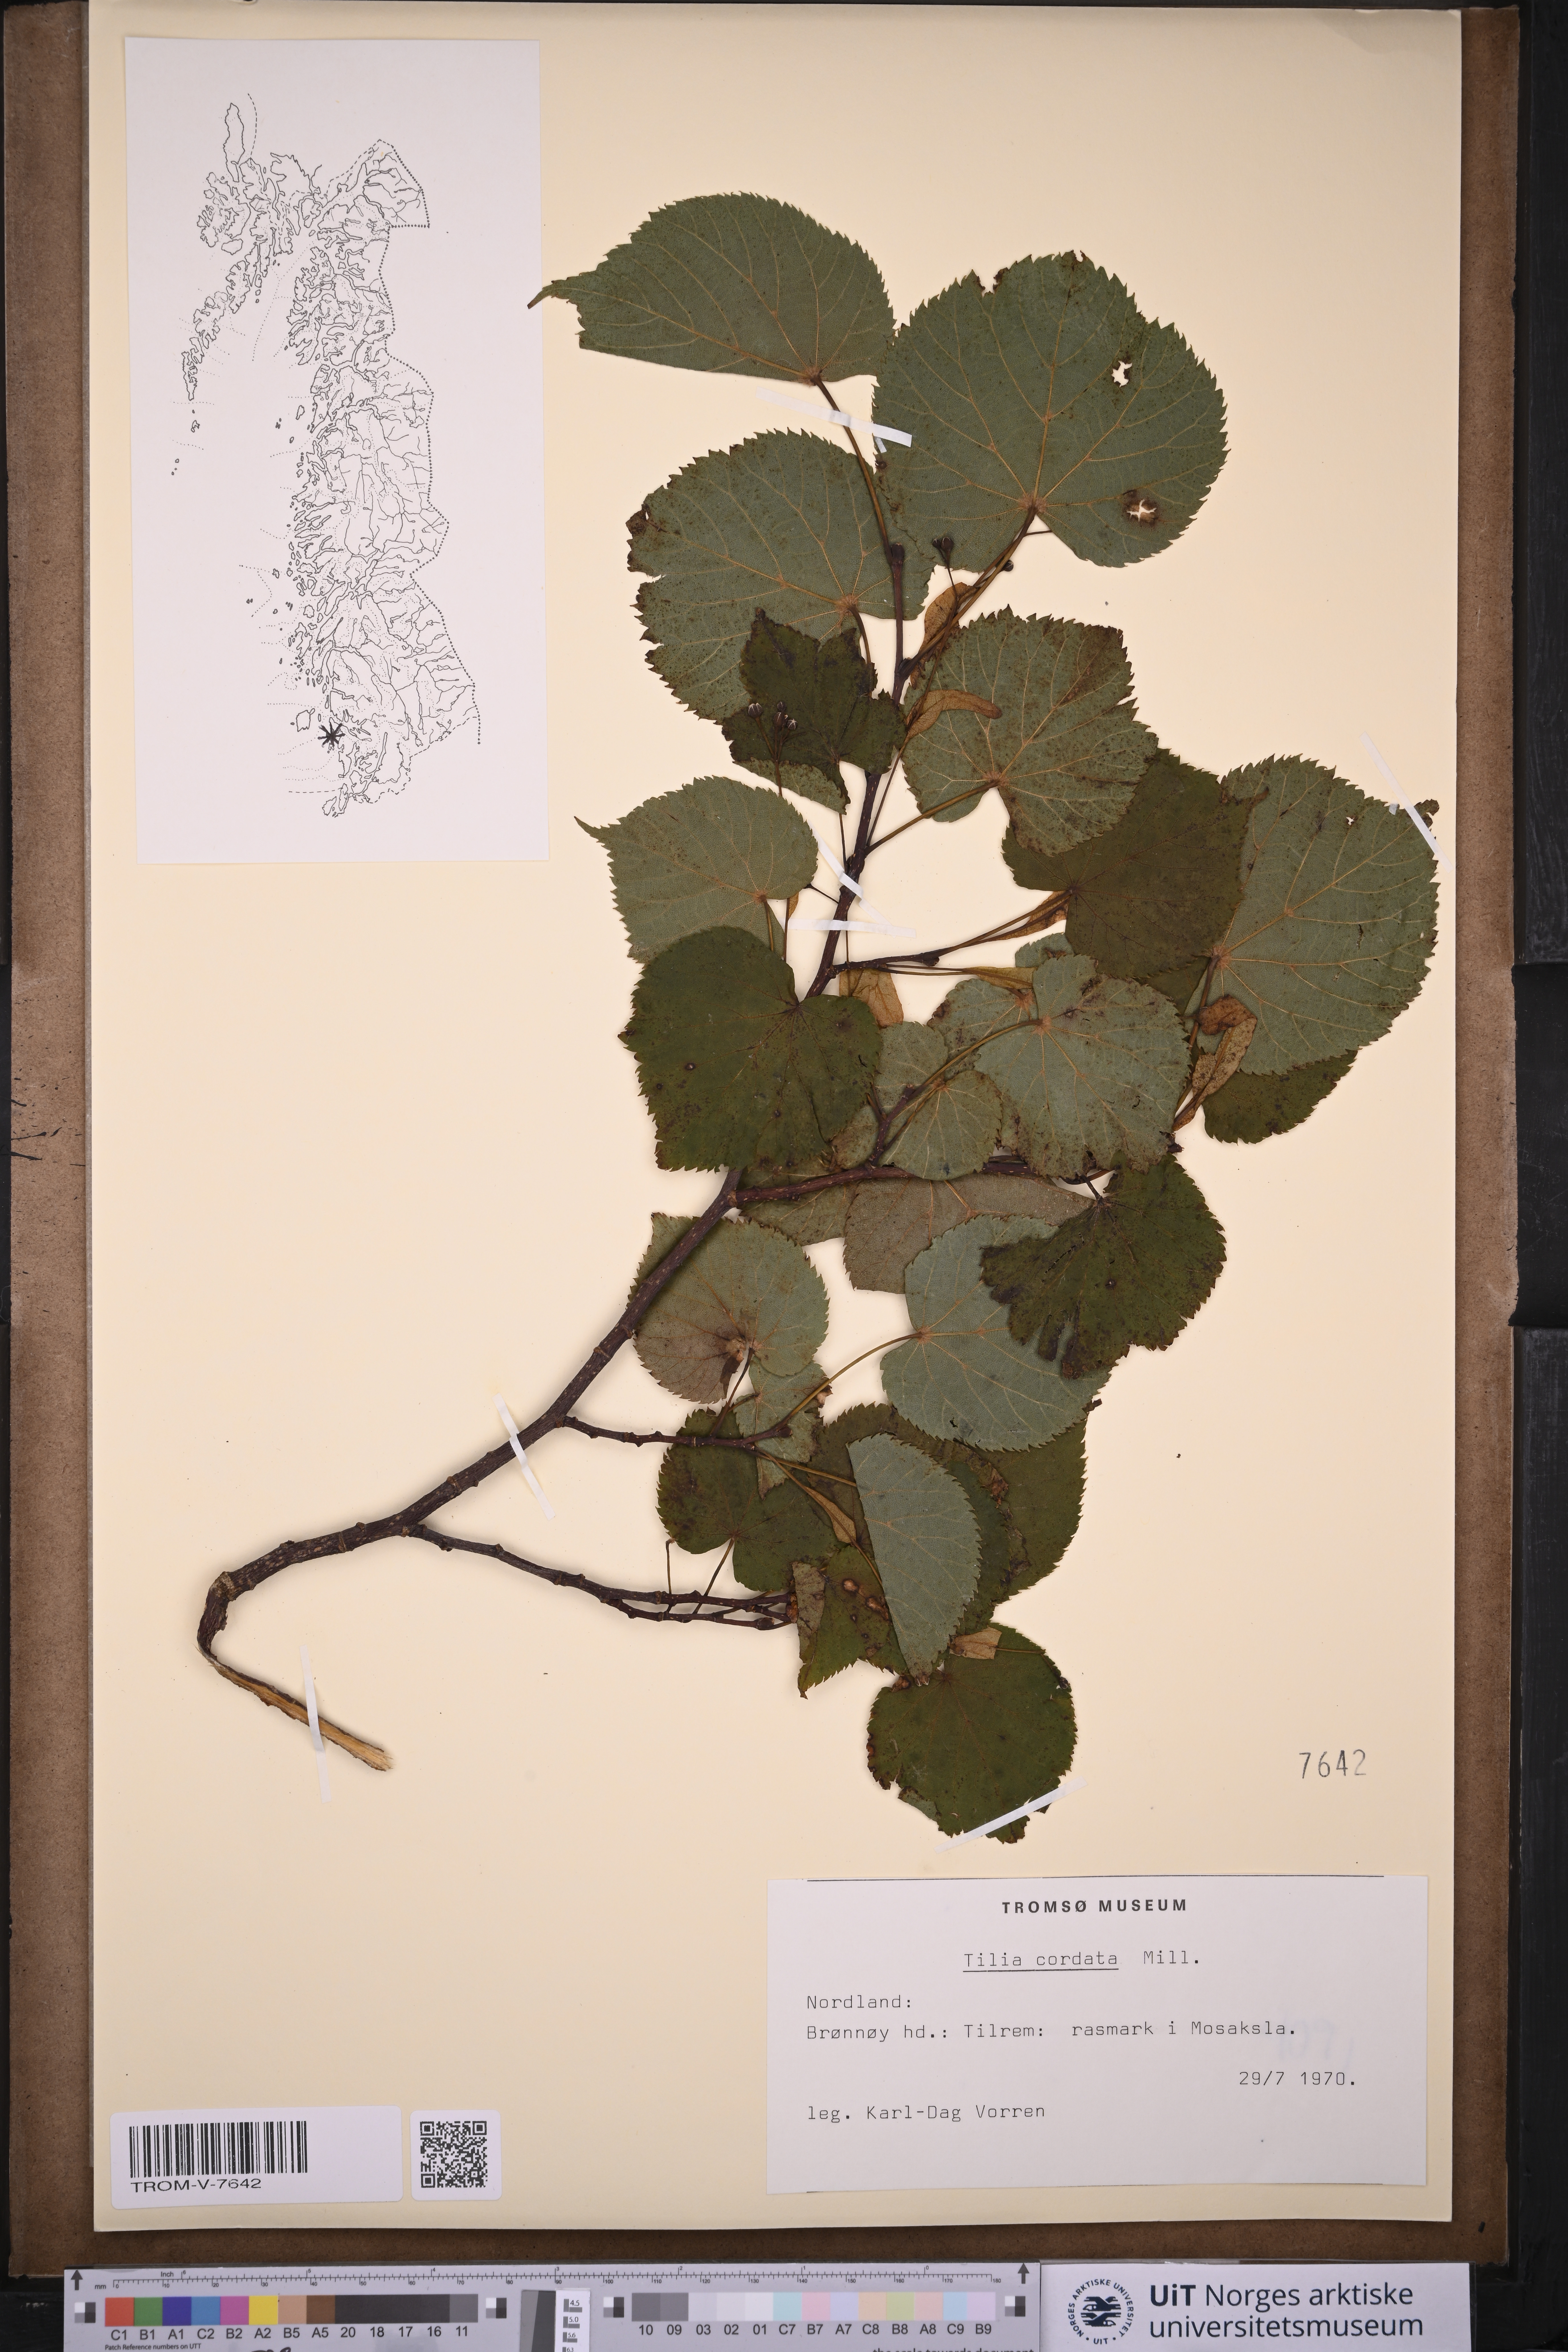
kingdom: Plantae
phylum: Tracheophyta
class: Magnoliopsida
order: Malvales
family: Malvaceae
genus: Tilia
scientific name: Tilia cordata
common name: Small-leaved lime
